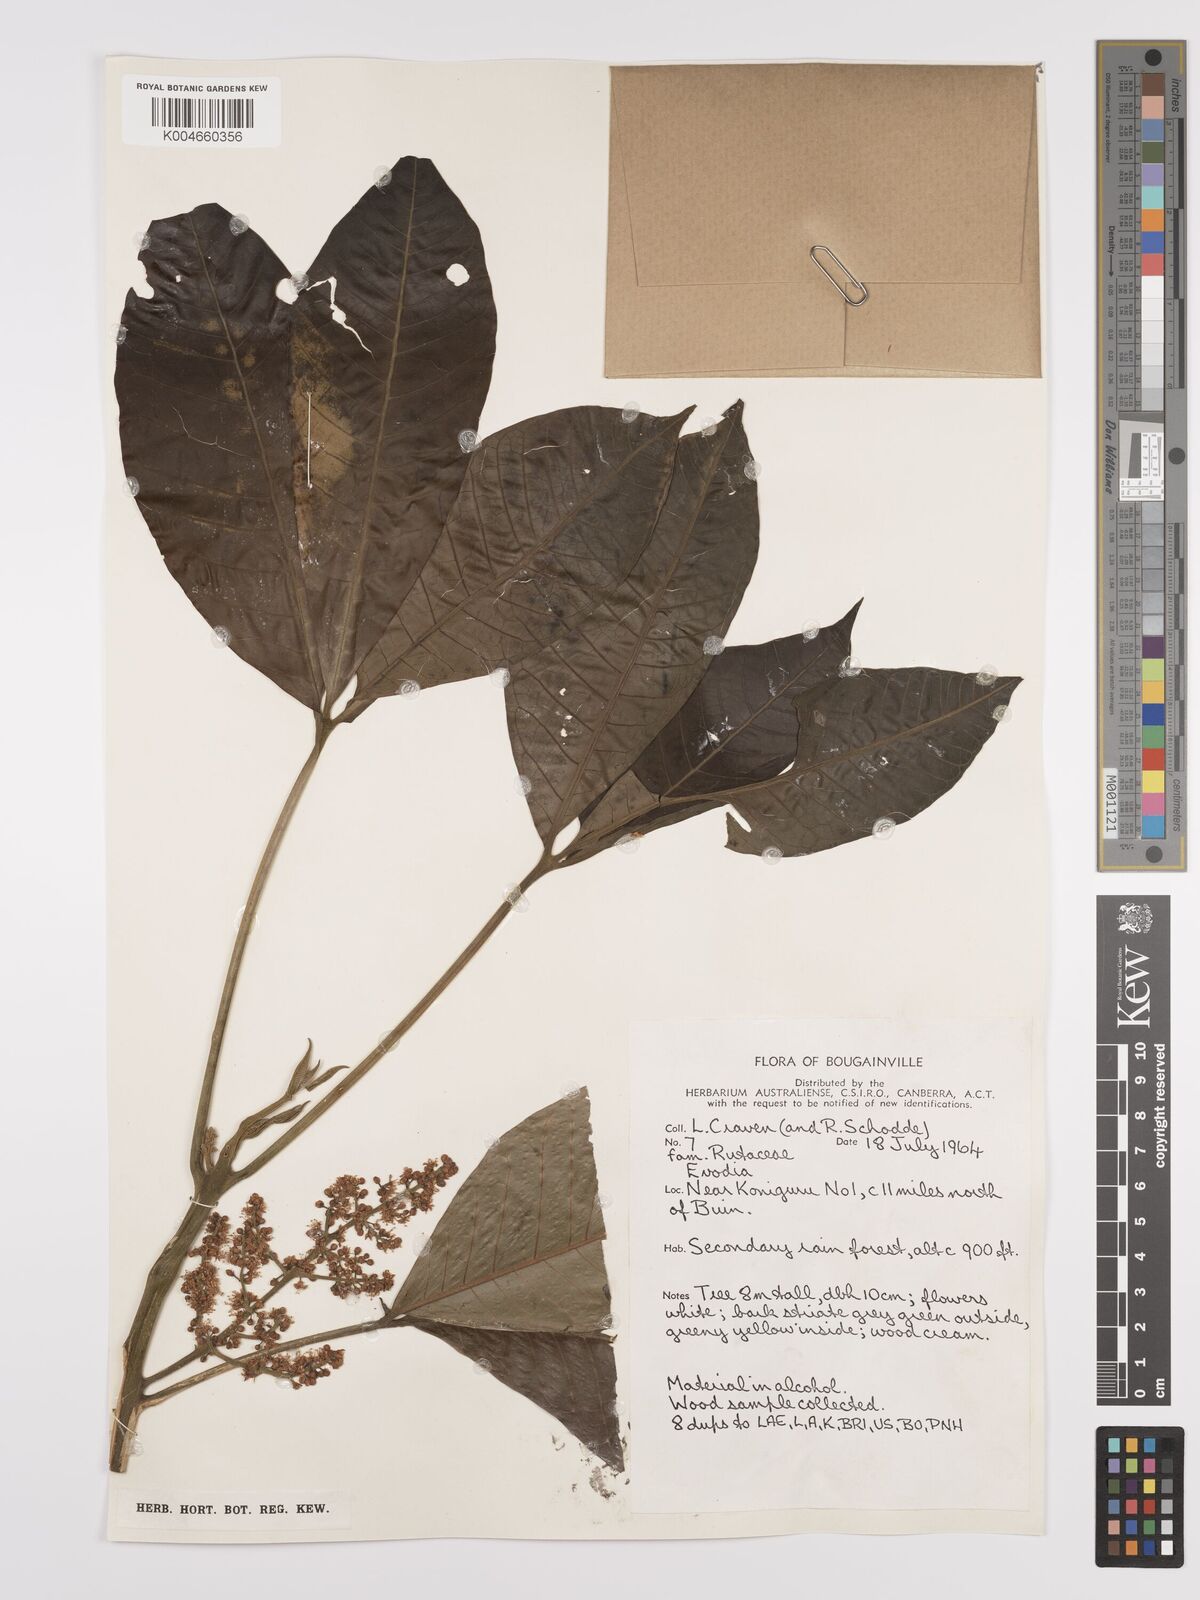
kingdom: Plantae
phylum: Tracheophyta
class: Magnoliopsida
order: Sapindales
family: Rutaceae
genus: Euodia
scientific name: Euodia
